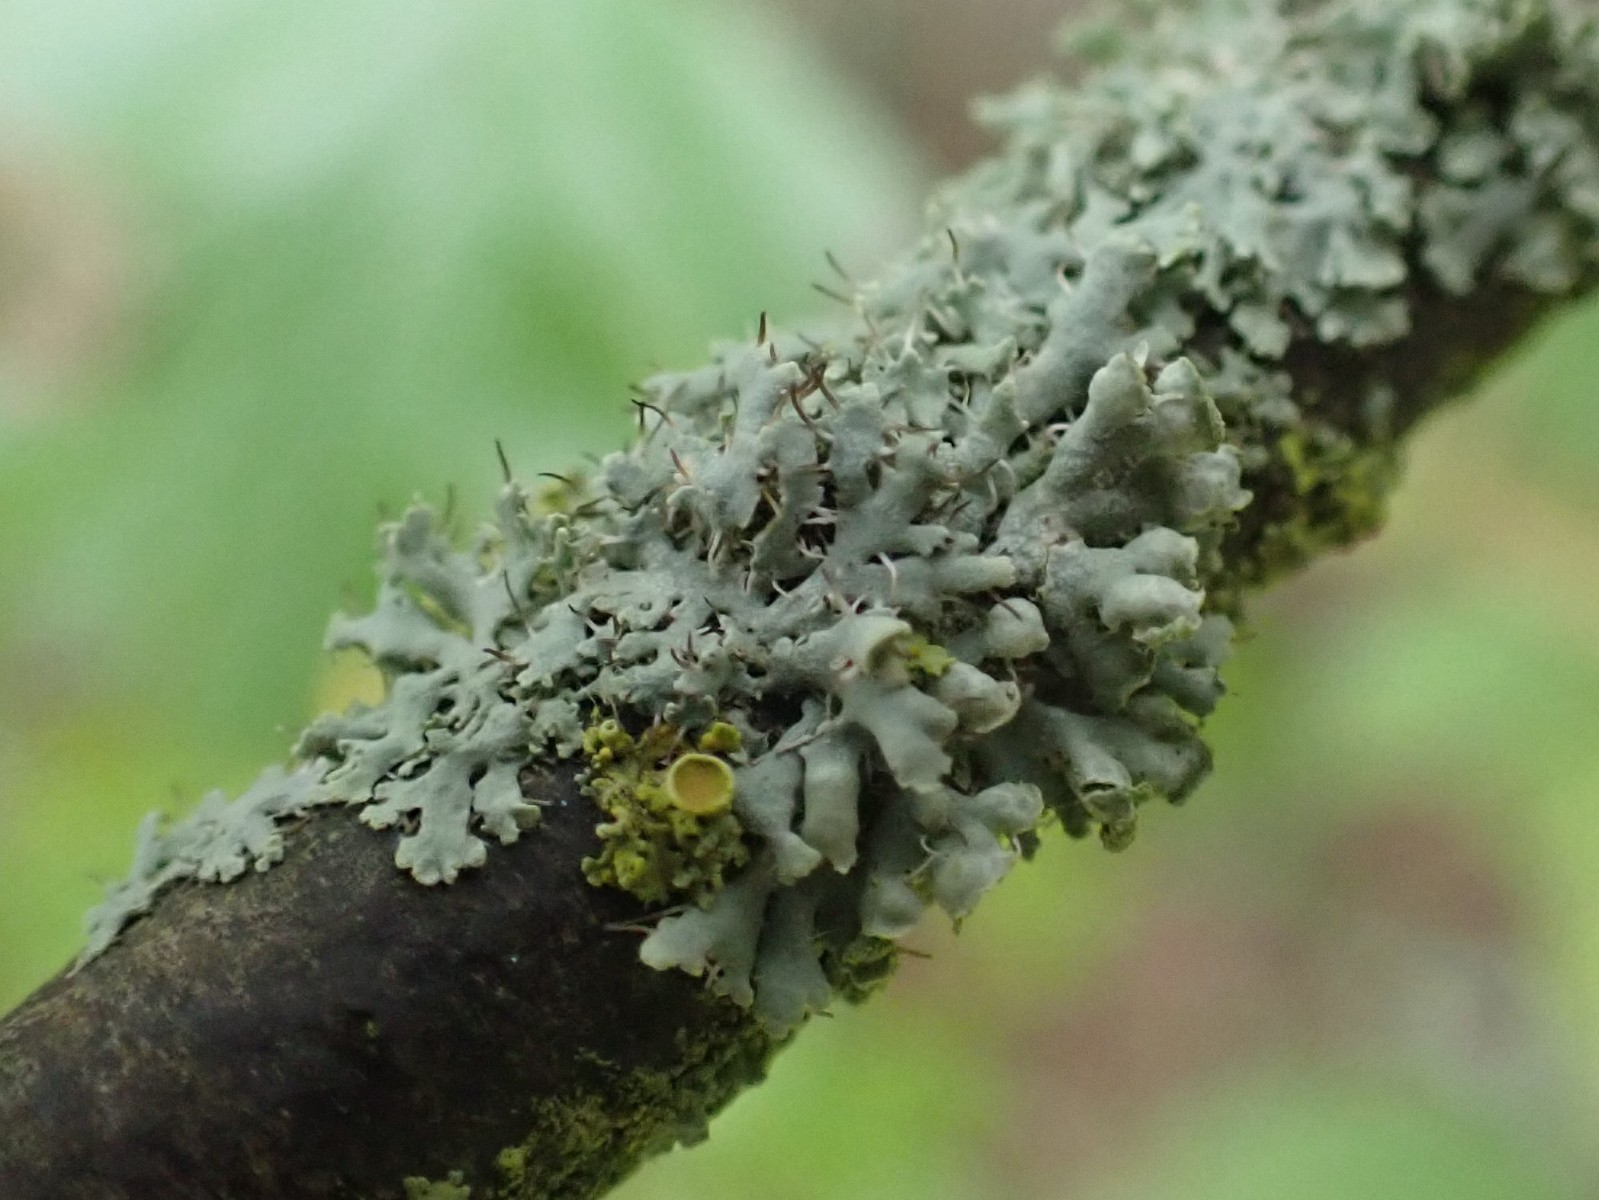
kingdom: Fungi
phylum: Ascomycota
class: Lecanoromycetes
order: Caliciales
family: Physciaceae
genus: Physcia
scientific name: Physcia tenella
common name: spæd rosetlav
